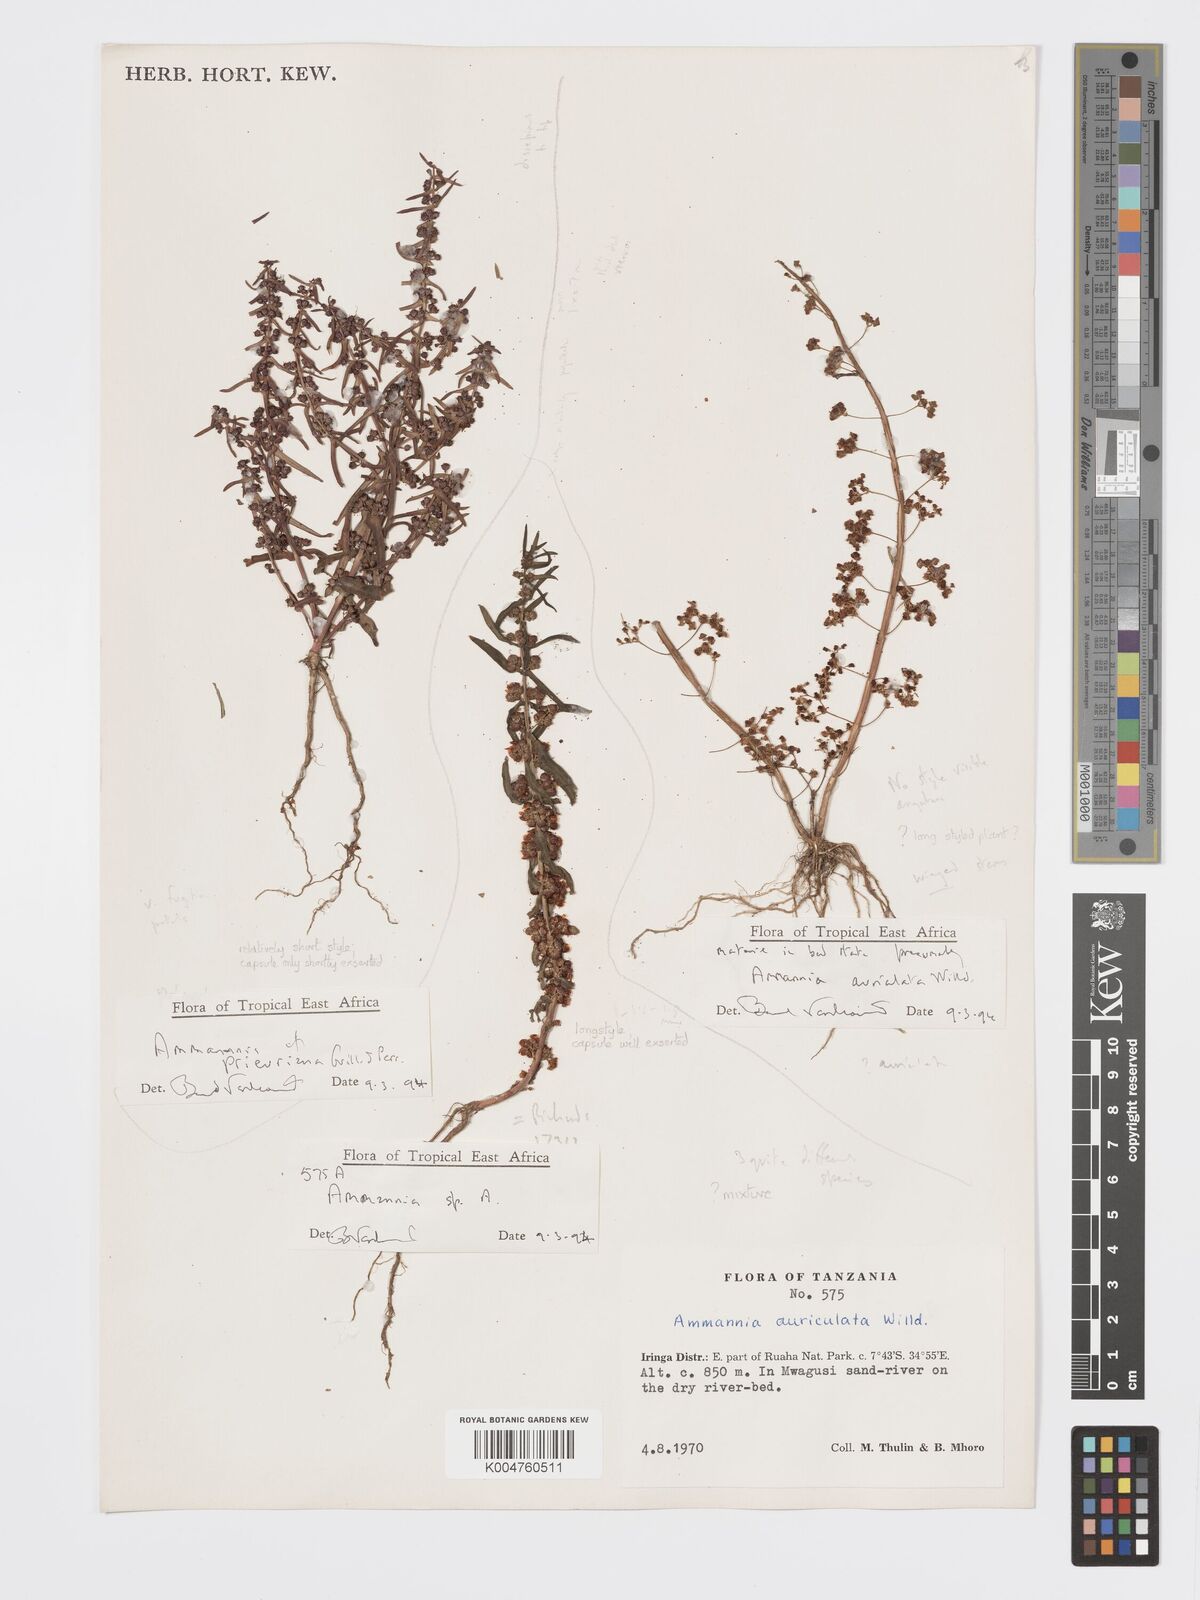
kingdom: Plantae
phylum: Tracheophyta
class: Magnoliopsida
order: Myrtales
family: Lythraceae
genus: Ammannia
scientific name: Ammannia
